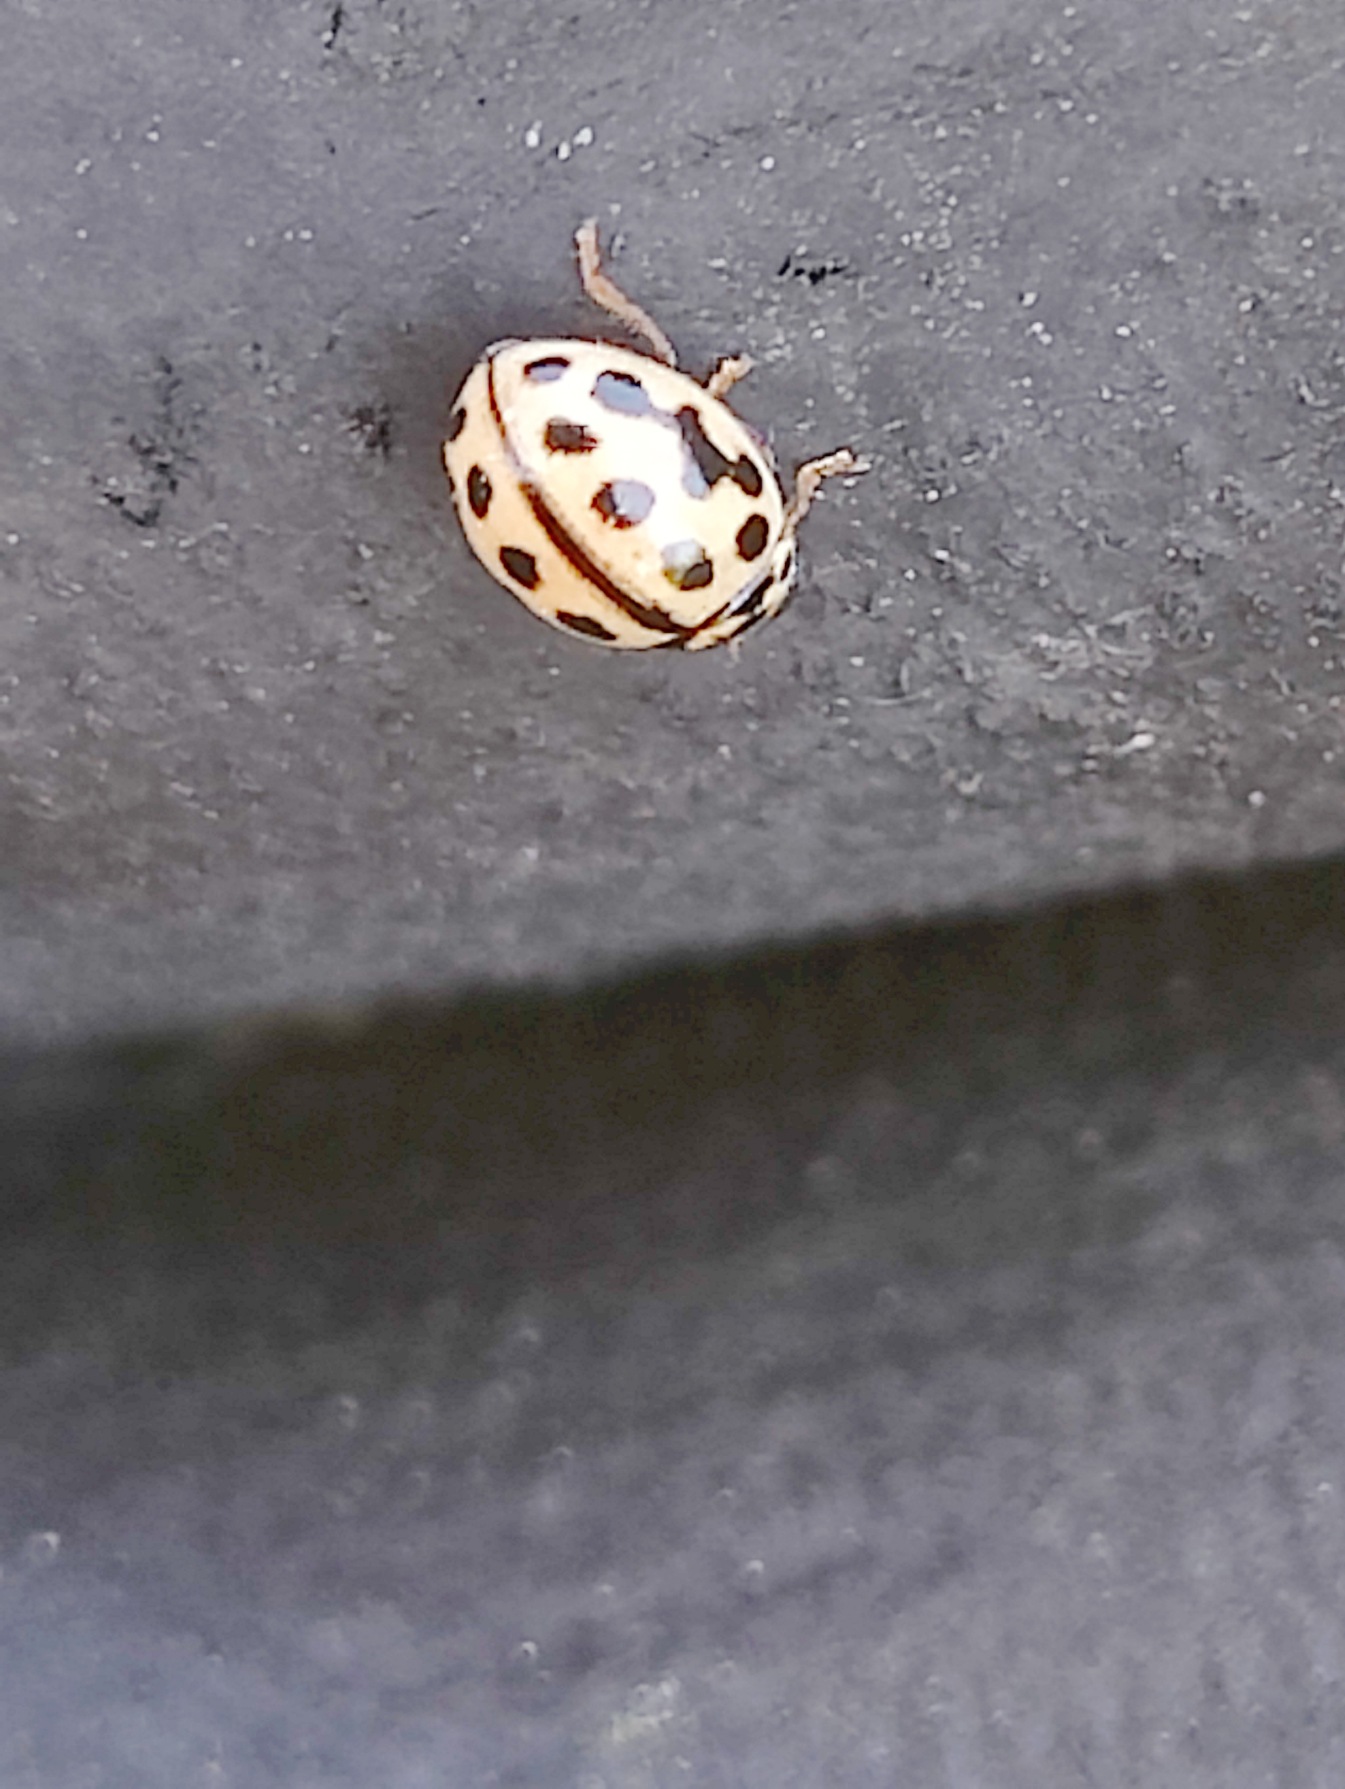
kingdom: Animalia
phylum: Arthropoda
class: Insecta
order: Coleoptera
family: Coccinellidae
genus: Tytthaspis
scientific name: Tytthaspis sedecimpunctata
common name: Sekstenprikket mariehøne
